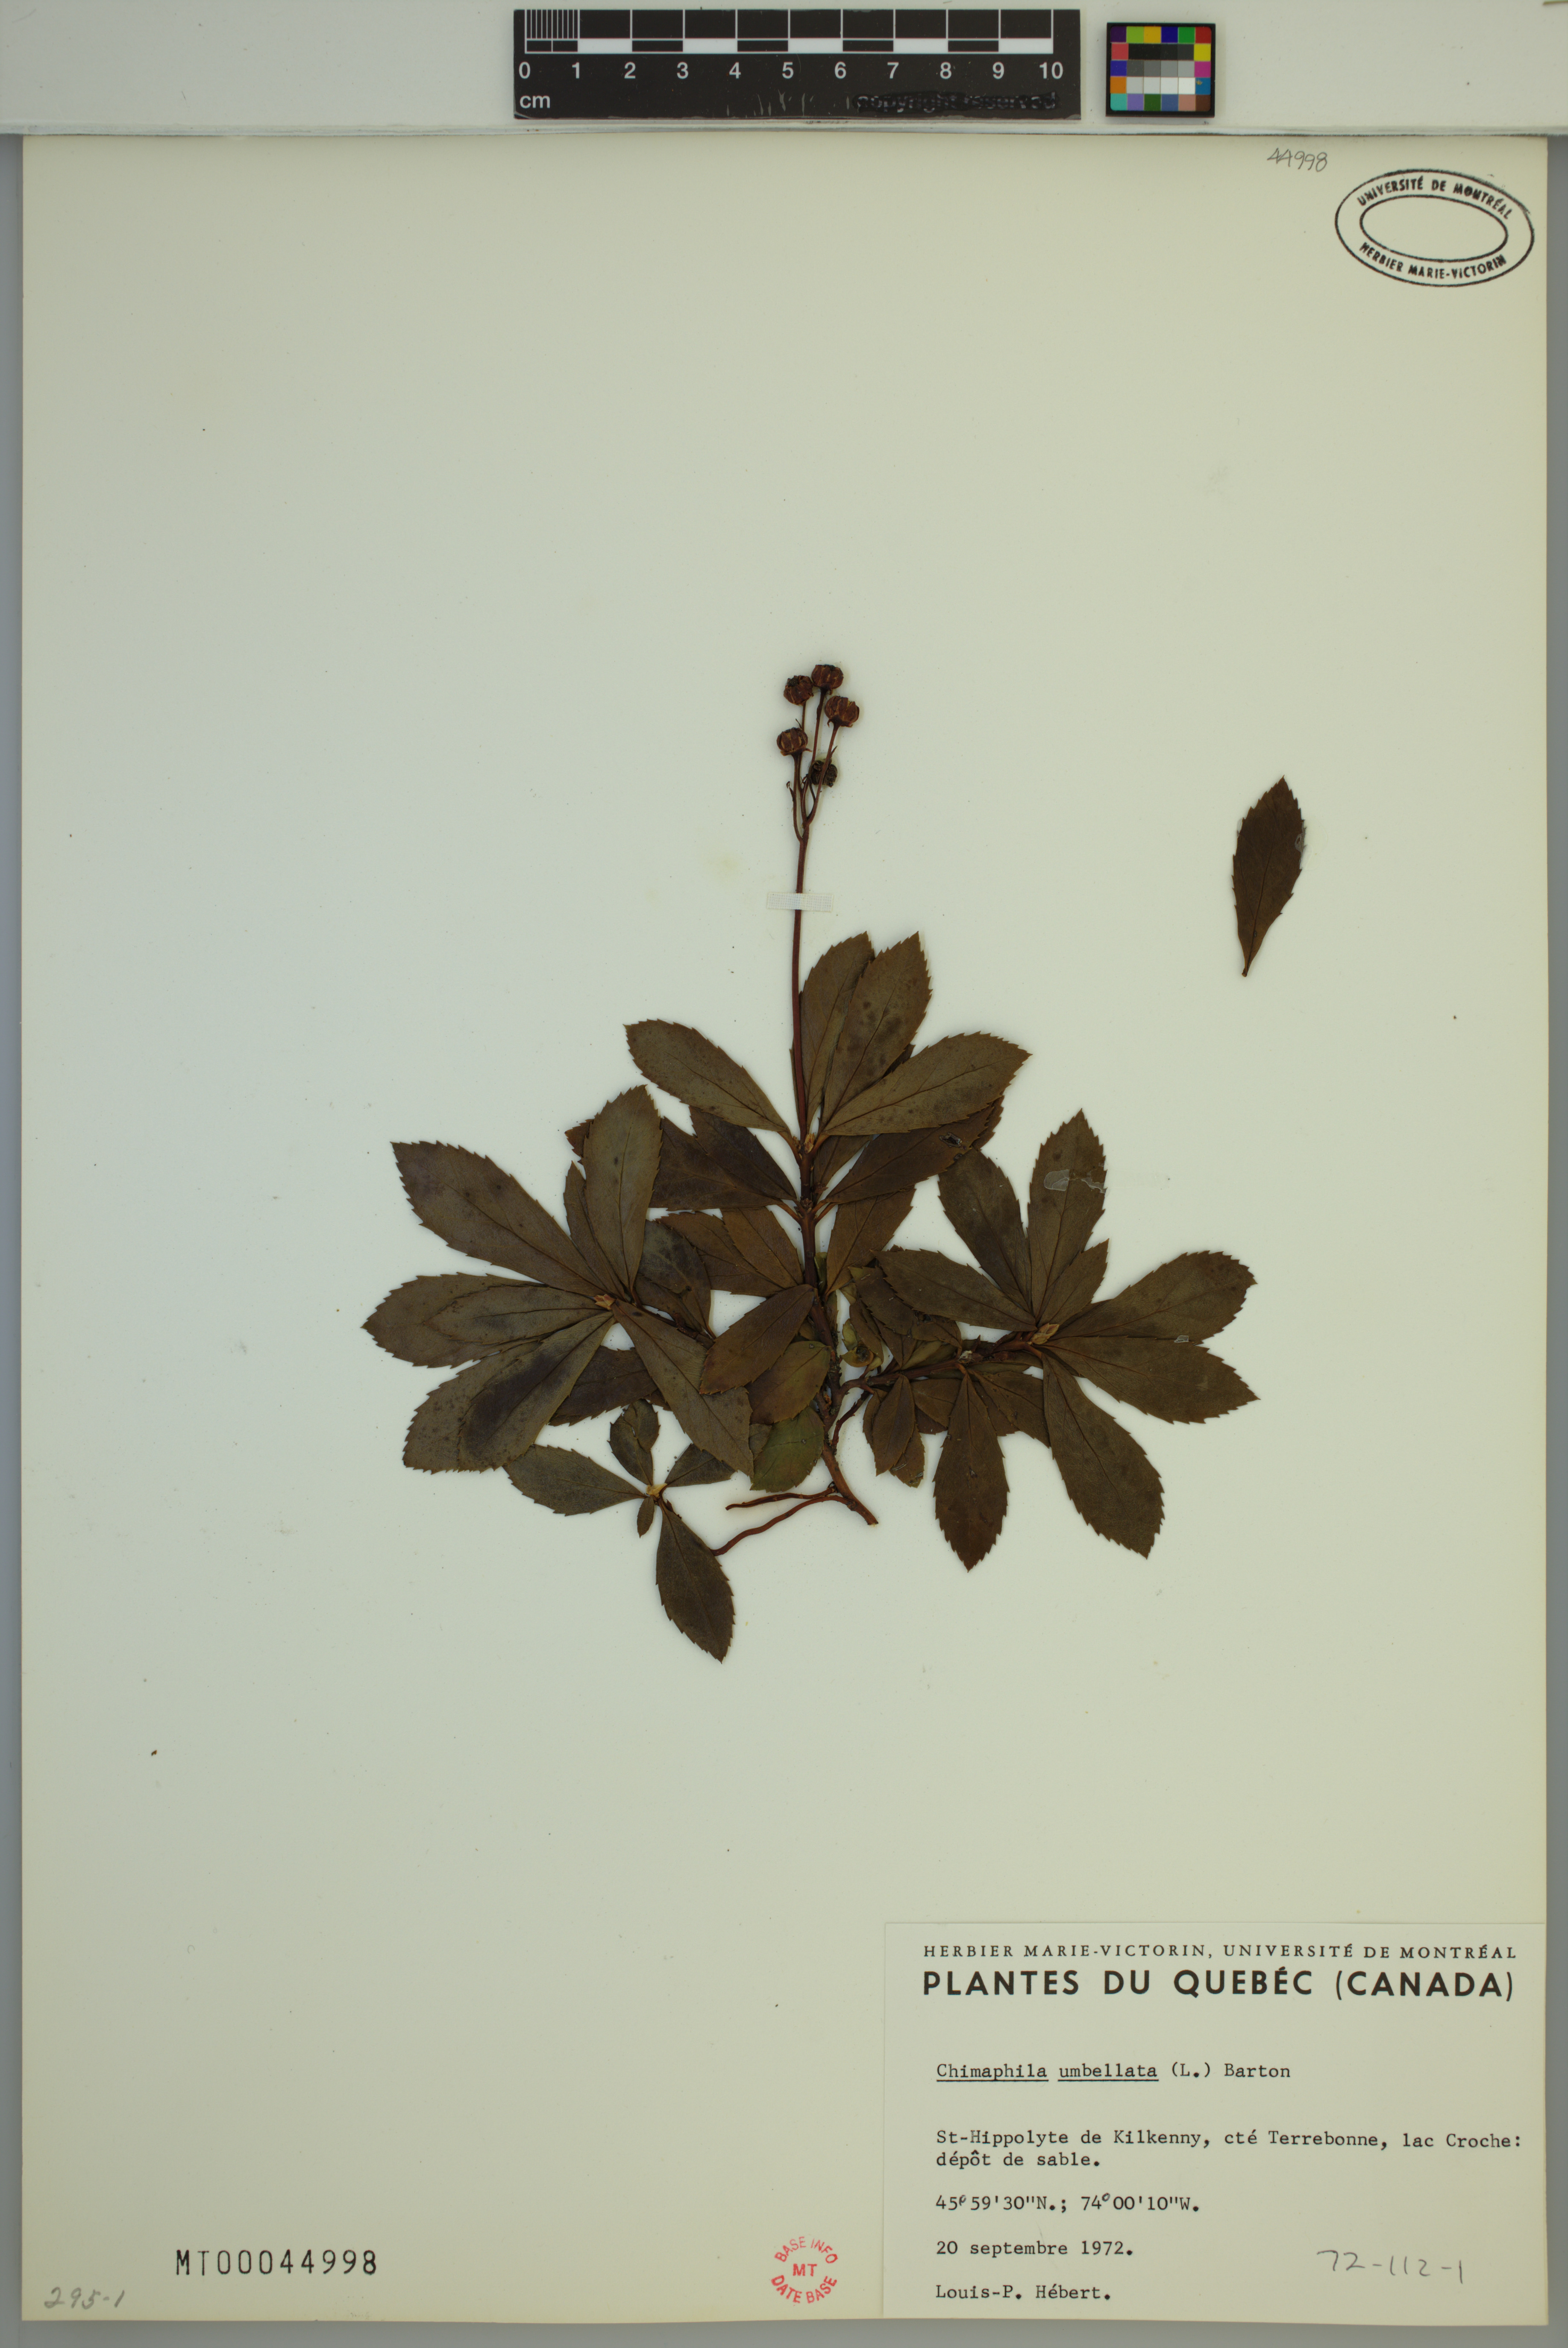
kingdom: Plantae
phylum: Tracheophyta
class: Magnoliopsida
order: Ericales
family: Ericaceae
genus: Chimaphila
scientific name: Chimaphila umbellata
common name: Pipsissewa
